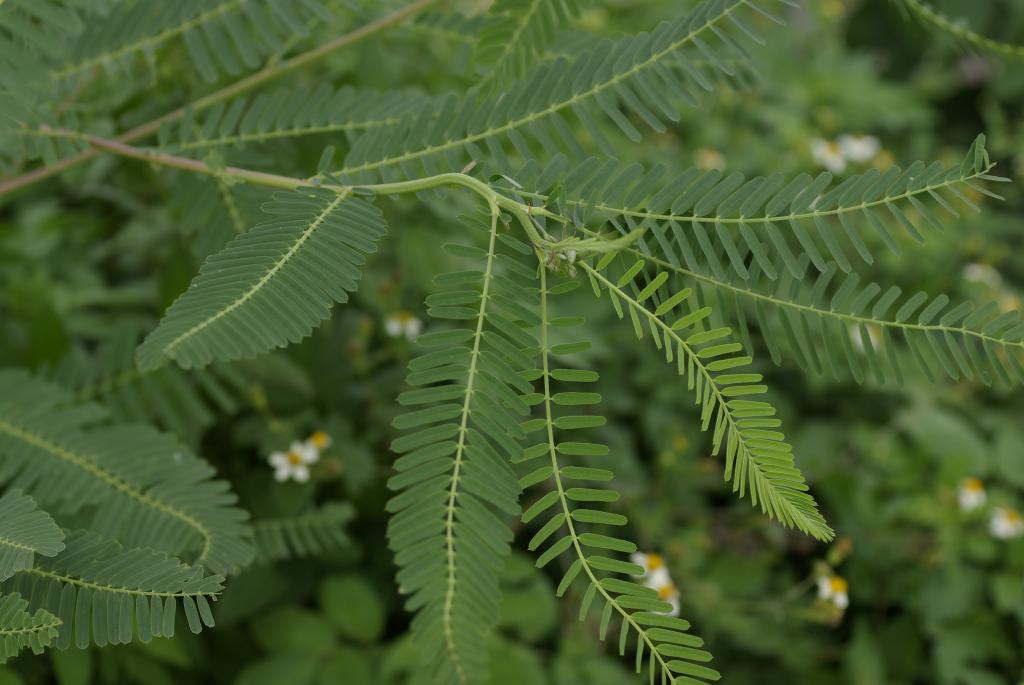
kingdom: Plantae
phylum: Tracheophyta
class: Magnoliopsida
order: Fabales
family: Fabaceae
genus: Sesbania
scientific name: Sesbania cannabina
